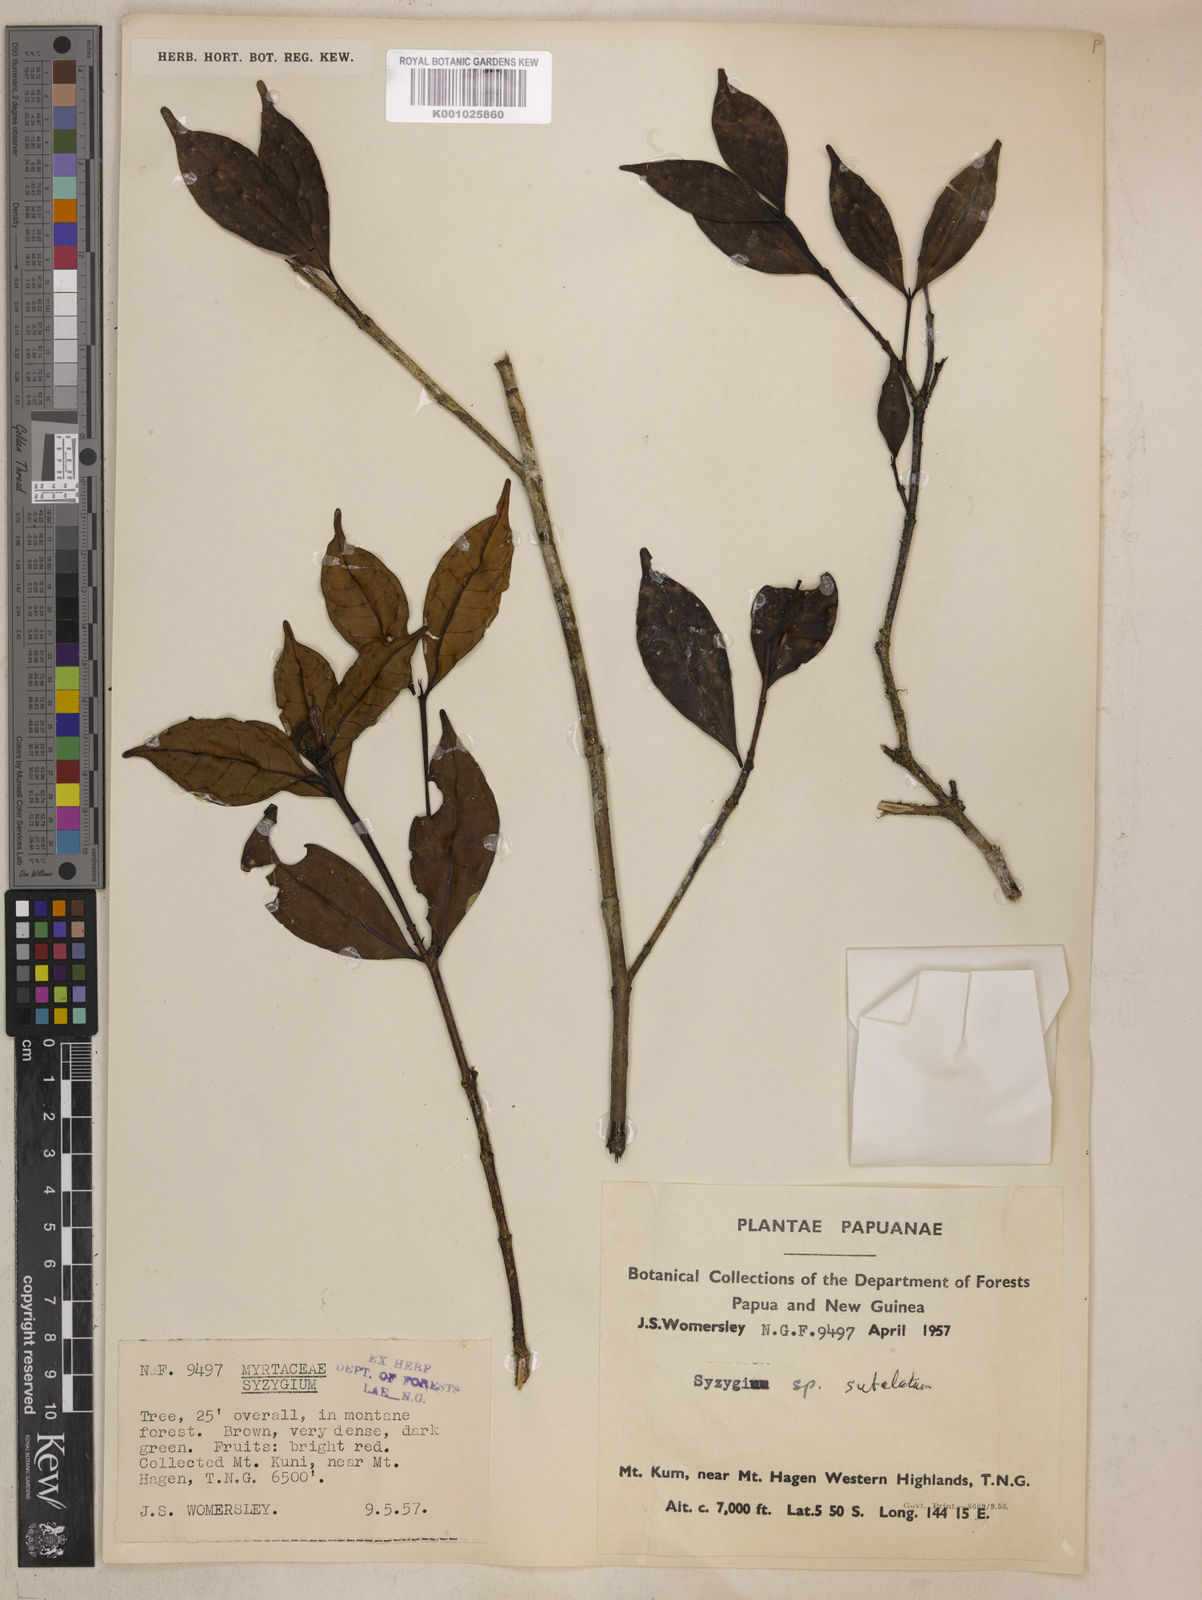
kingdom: Plantae
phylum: Tracheophyta
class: Magnoliopsida
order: Myrtales
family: Myrtaceae
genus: Syzygium
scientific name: Syzygium subalatum
